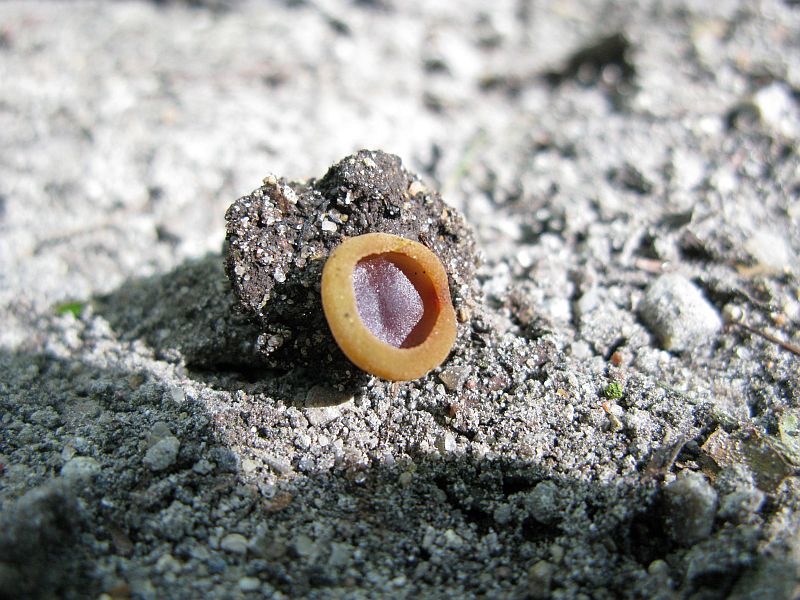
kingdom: Fungi
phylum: Ascomycota
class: Pezizomycetes
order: Pezizales
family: Pezizaceae
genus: Paragalactinia
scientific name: Paragalactinia michelii
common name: gulkødet bægersvamp
